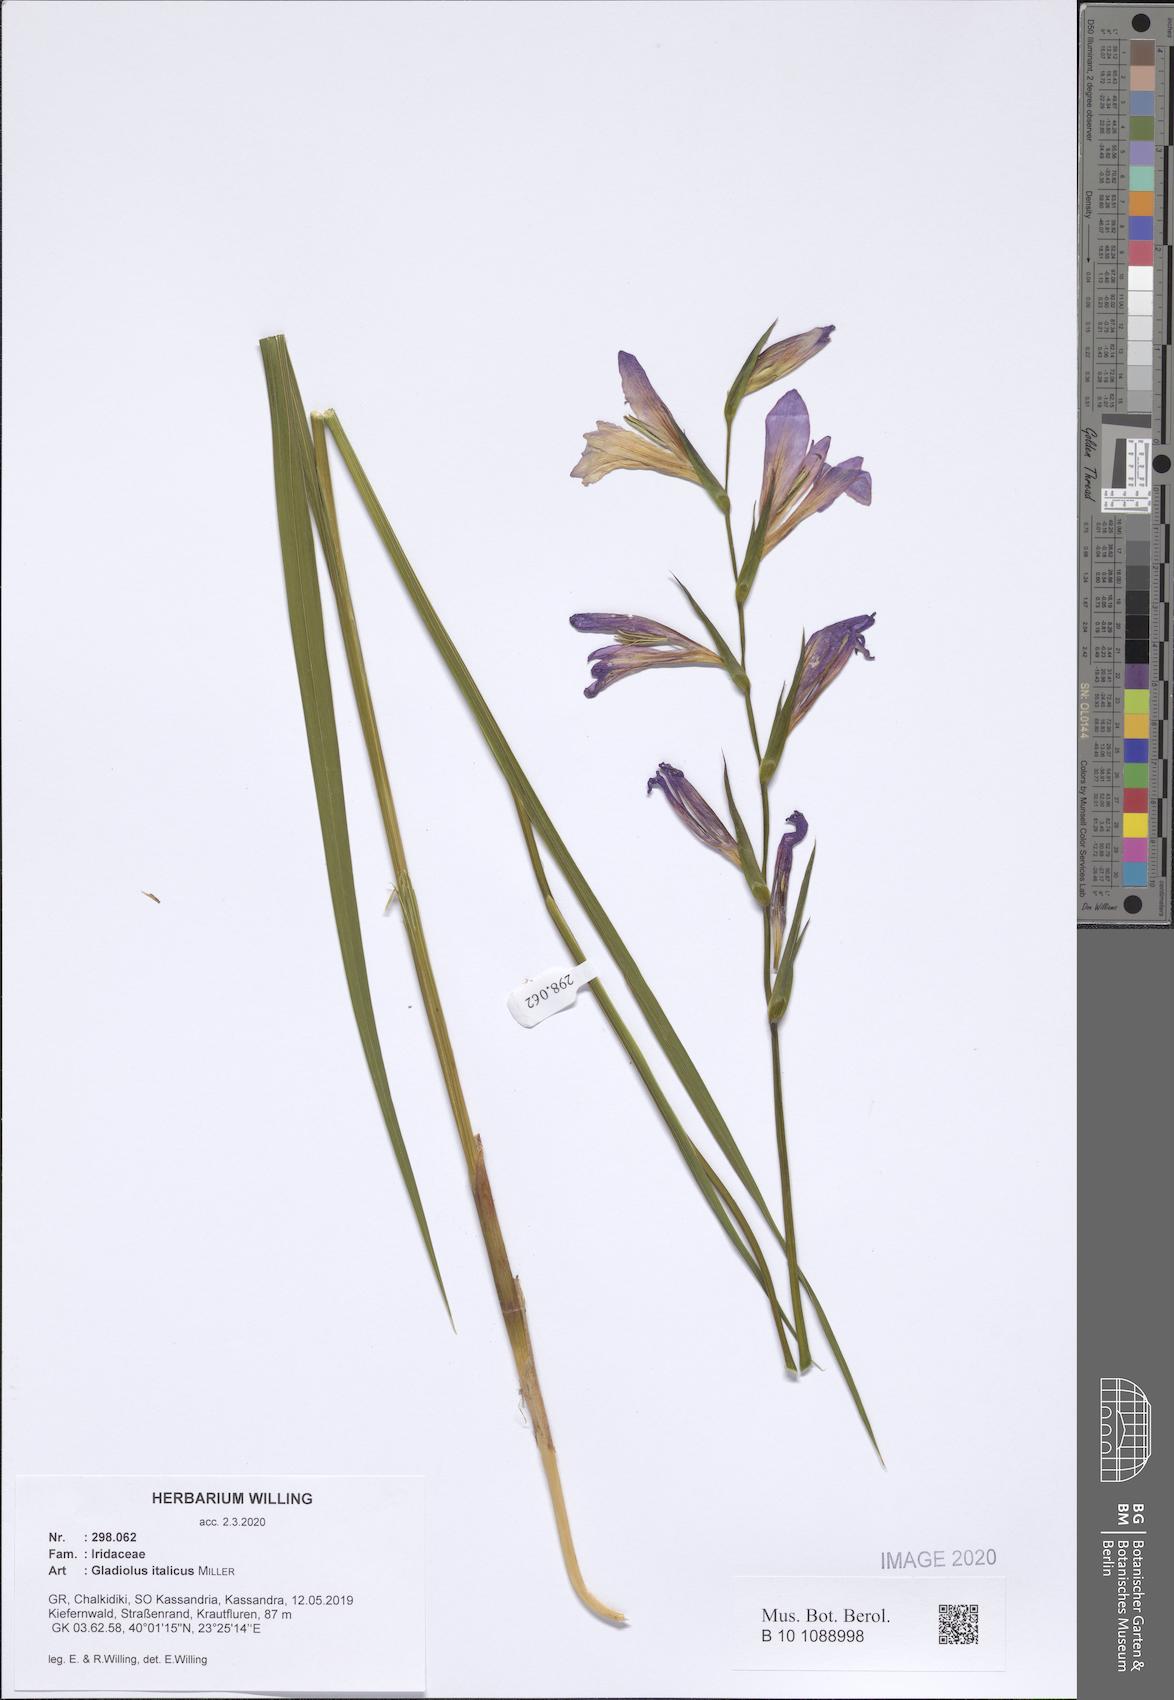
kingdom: Plantae
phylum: Tracheophyta
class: Liliopsida
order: Asparagales
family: Iridaceae
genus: Gladiolus
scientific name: Gladiolus italicus
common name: Field gladiolus
